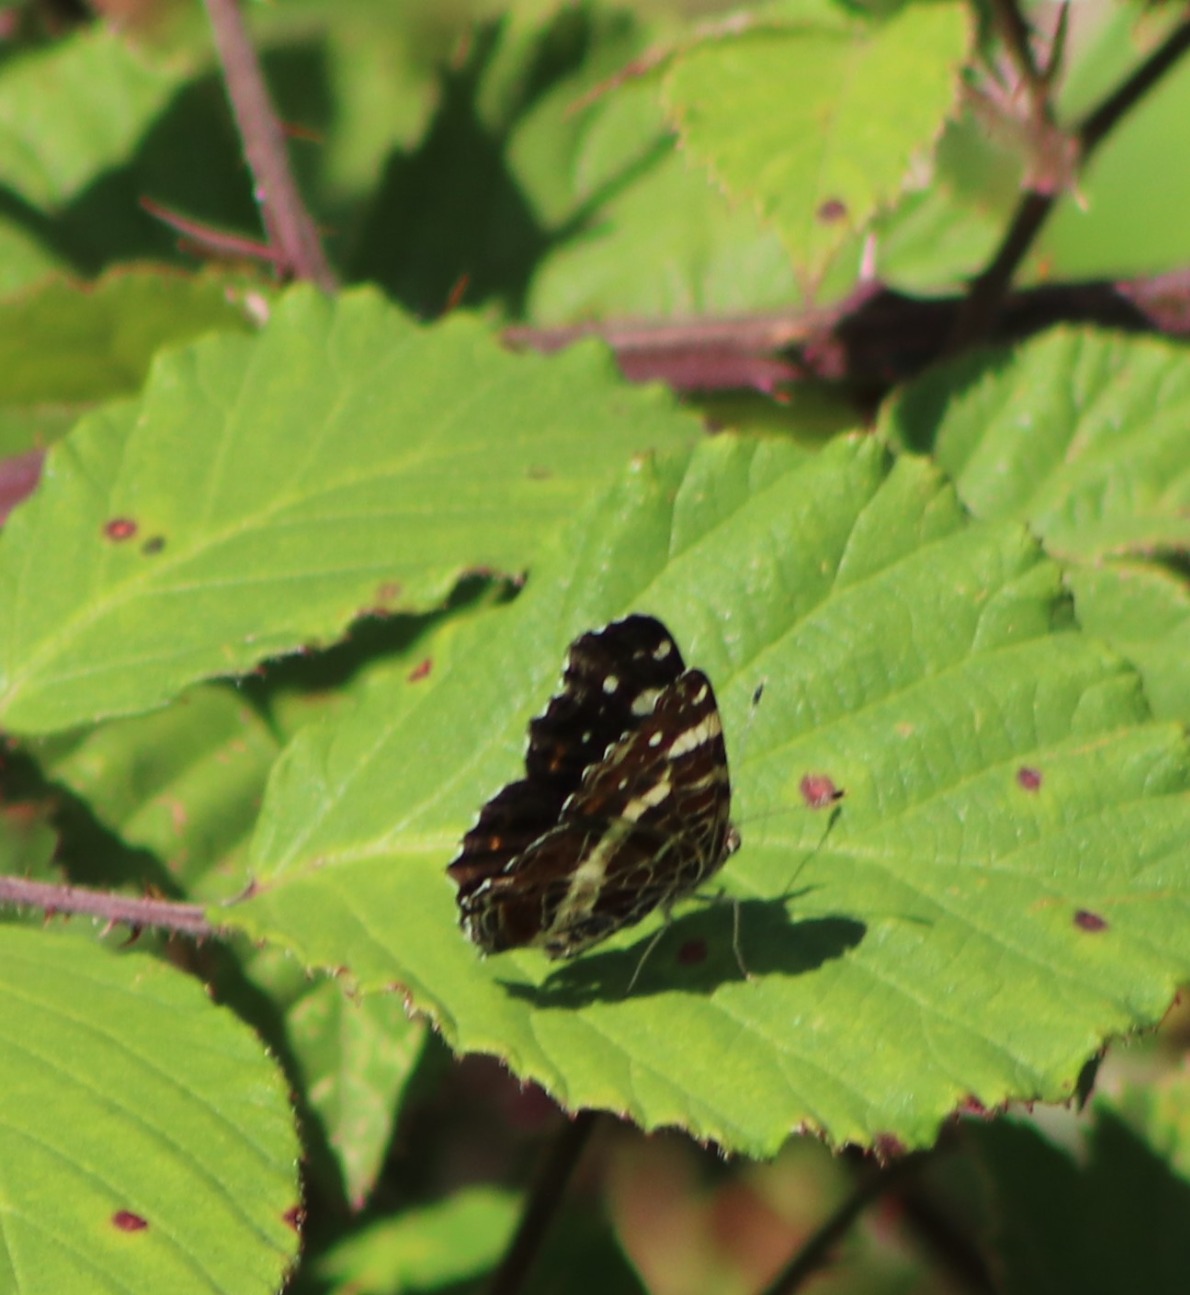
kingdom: Animalia
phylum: Arthropoda
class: Insecta
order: Lepidoptera
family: Nymphalidae
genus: Araschnia
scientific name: Araschnia levana
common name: Nældesommerfugl
